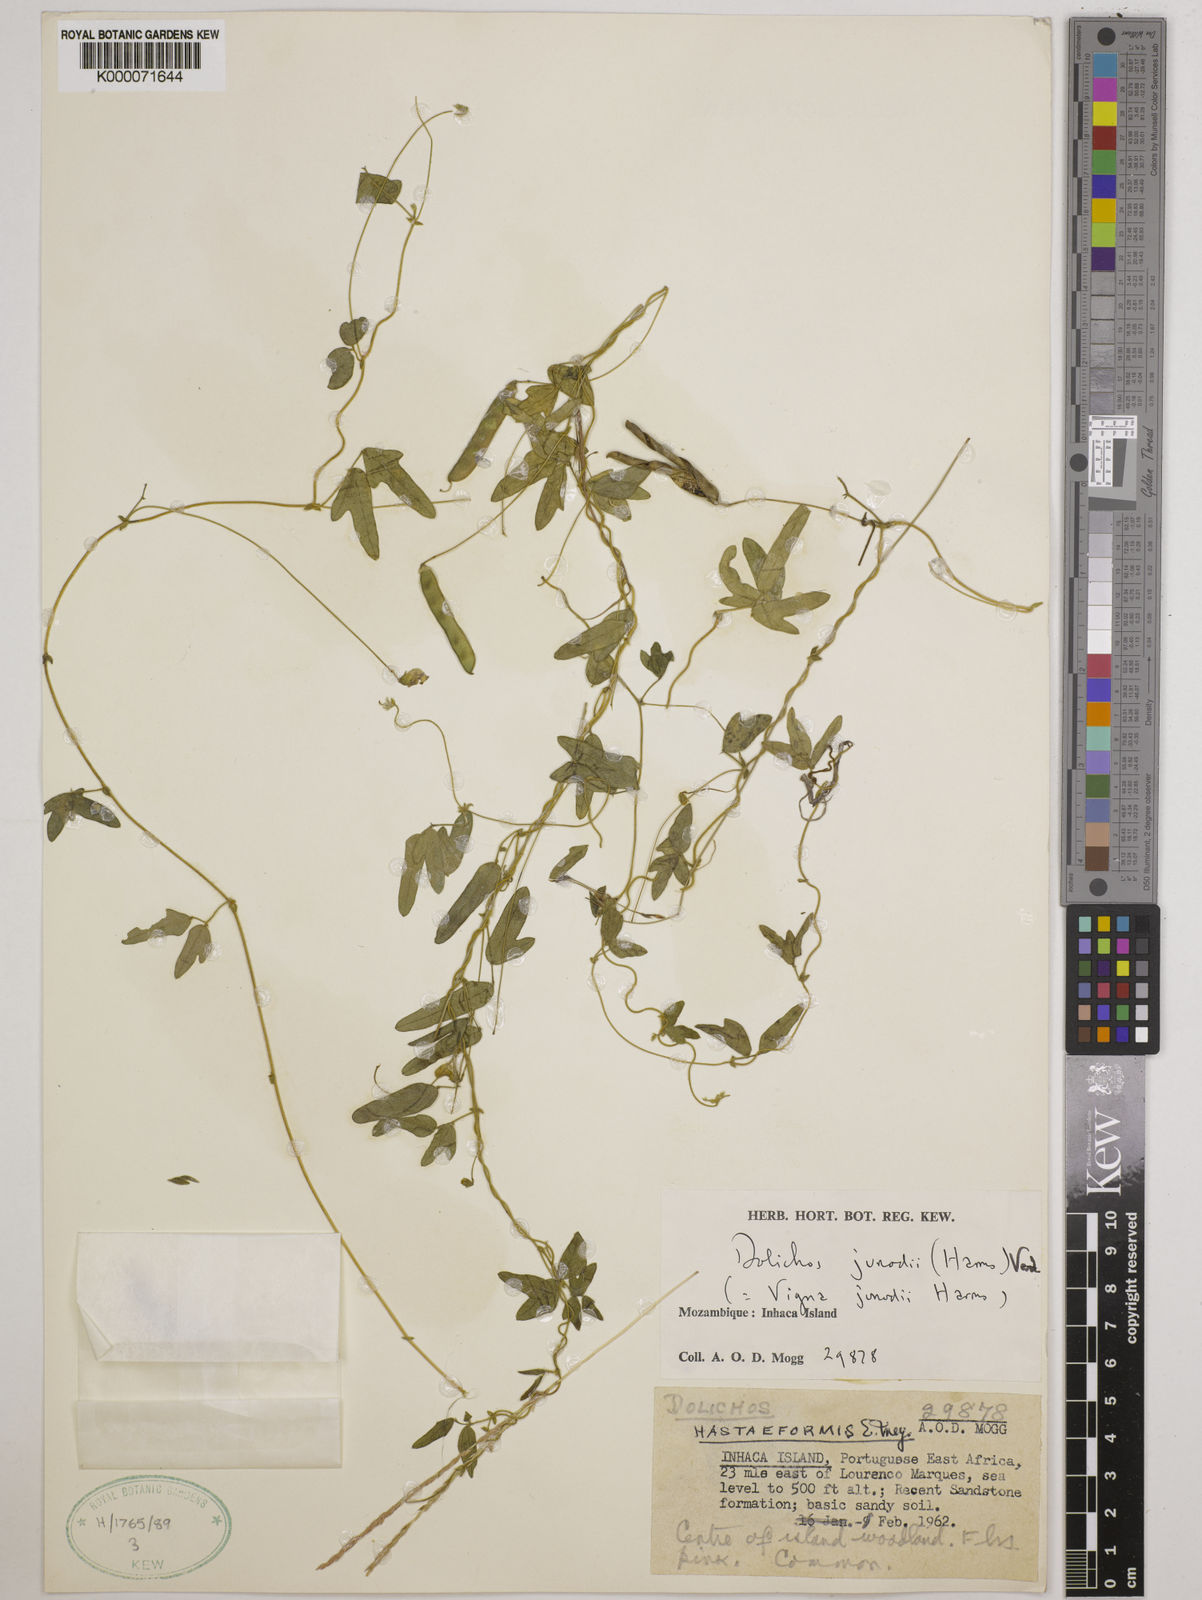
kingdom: Plantae
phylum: Tracheophyta
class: Magnoliopsida
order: Fabales
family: Fabaceae
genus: Dolichos
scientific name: Dolichos junodii
